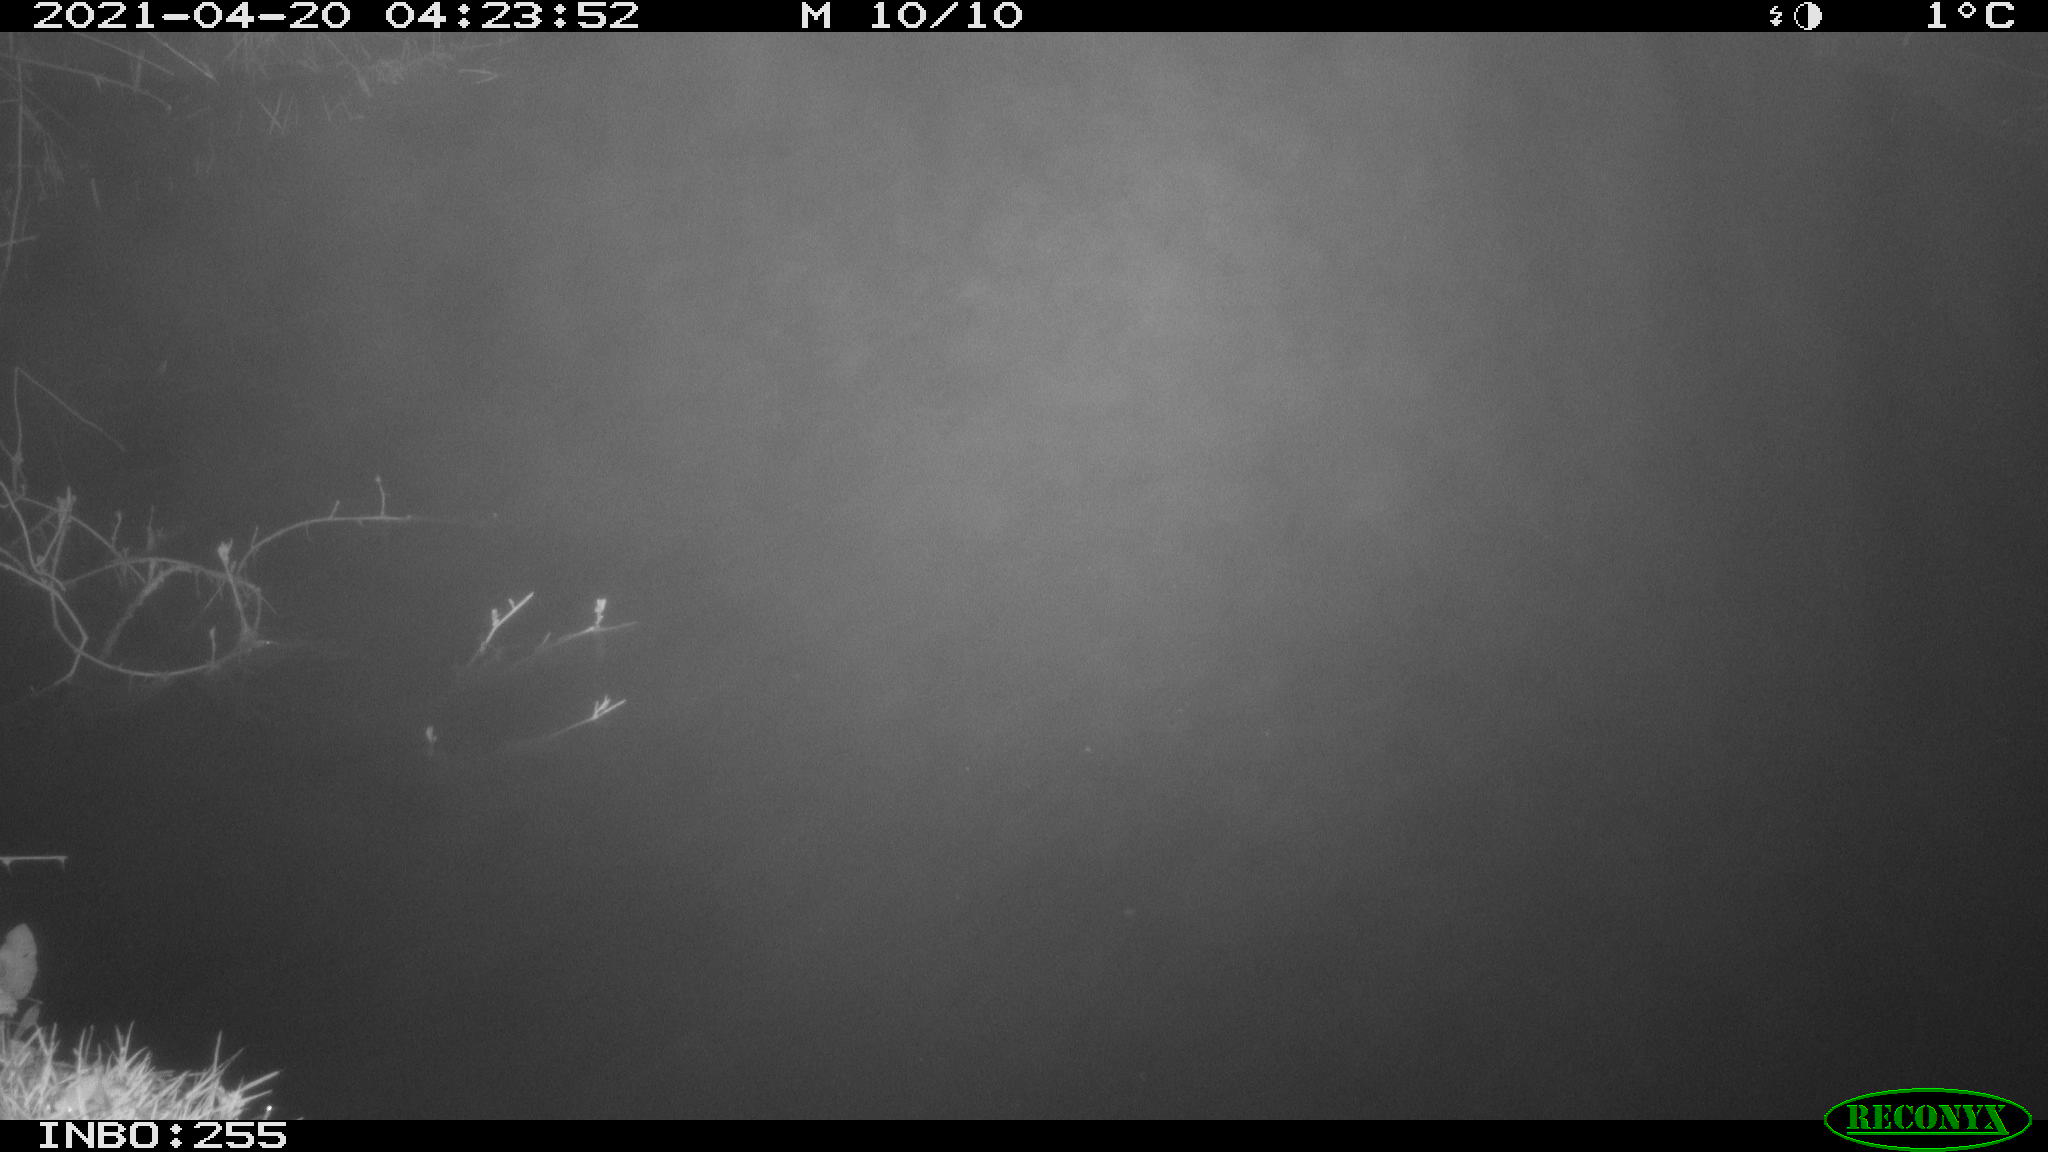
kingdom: Animalia
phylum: Chordata
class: Aves
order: Anseriformes
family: Anatidae
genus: Anas
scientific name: Anas platyrhynchos
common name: Mallard
